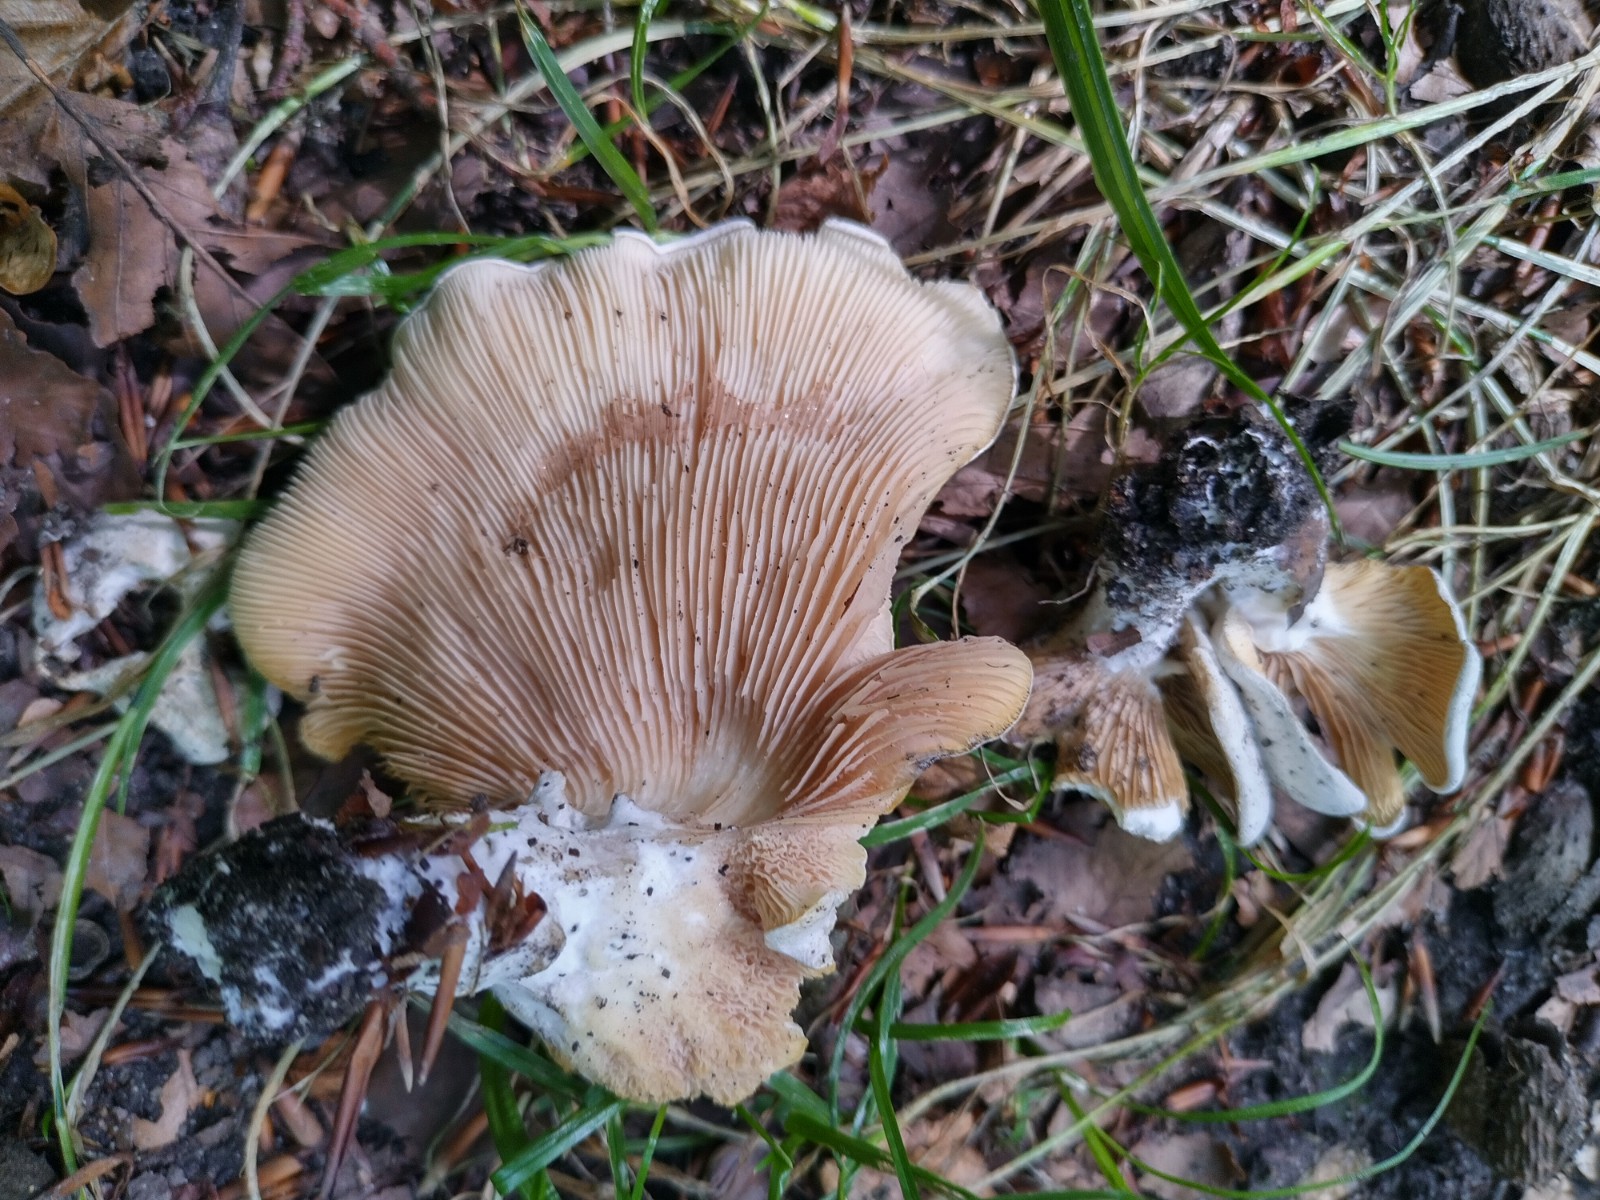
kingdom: Fungi
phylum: Basidiomycota
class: Agaricomycetes
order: Agaricales
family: Entolomataceae
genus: Clitopilus
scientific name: Clitopilus prunulus
